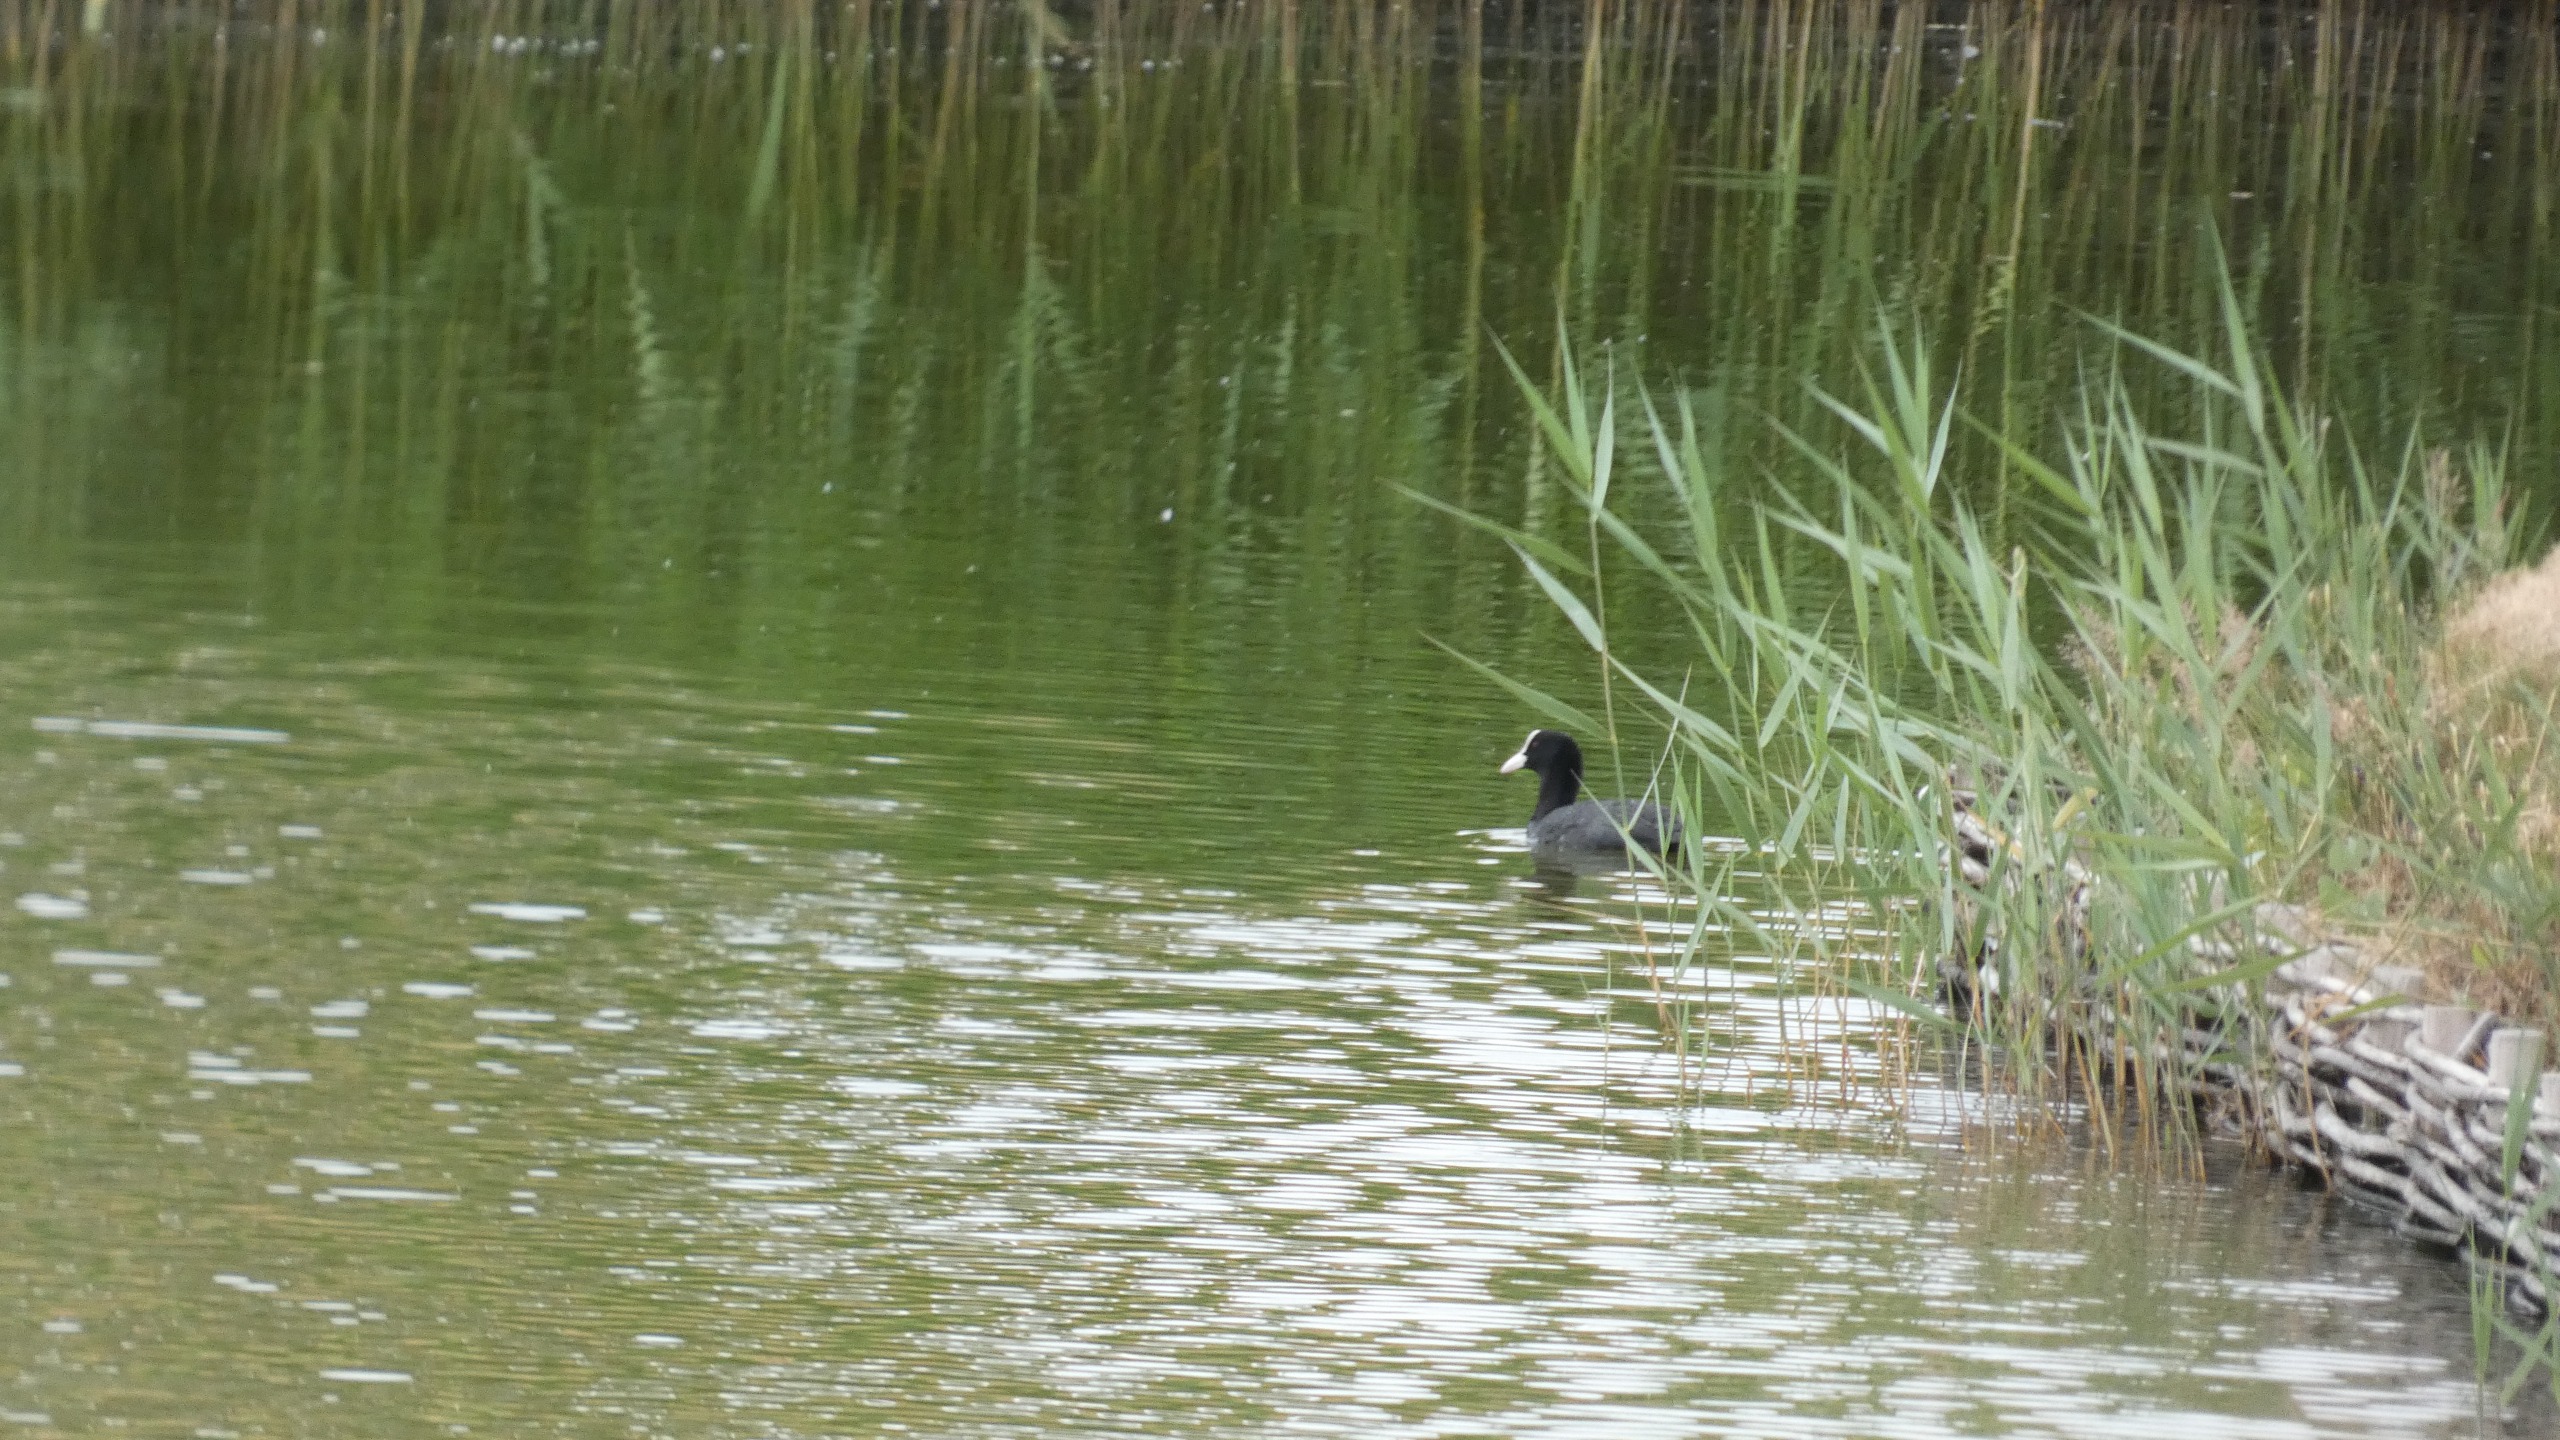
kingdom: Animalia
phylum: Chordata
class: Aves
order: Gruiformes
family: Rallidae
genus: Fulica
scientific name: Fulica atra
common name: Blishøne
